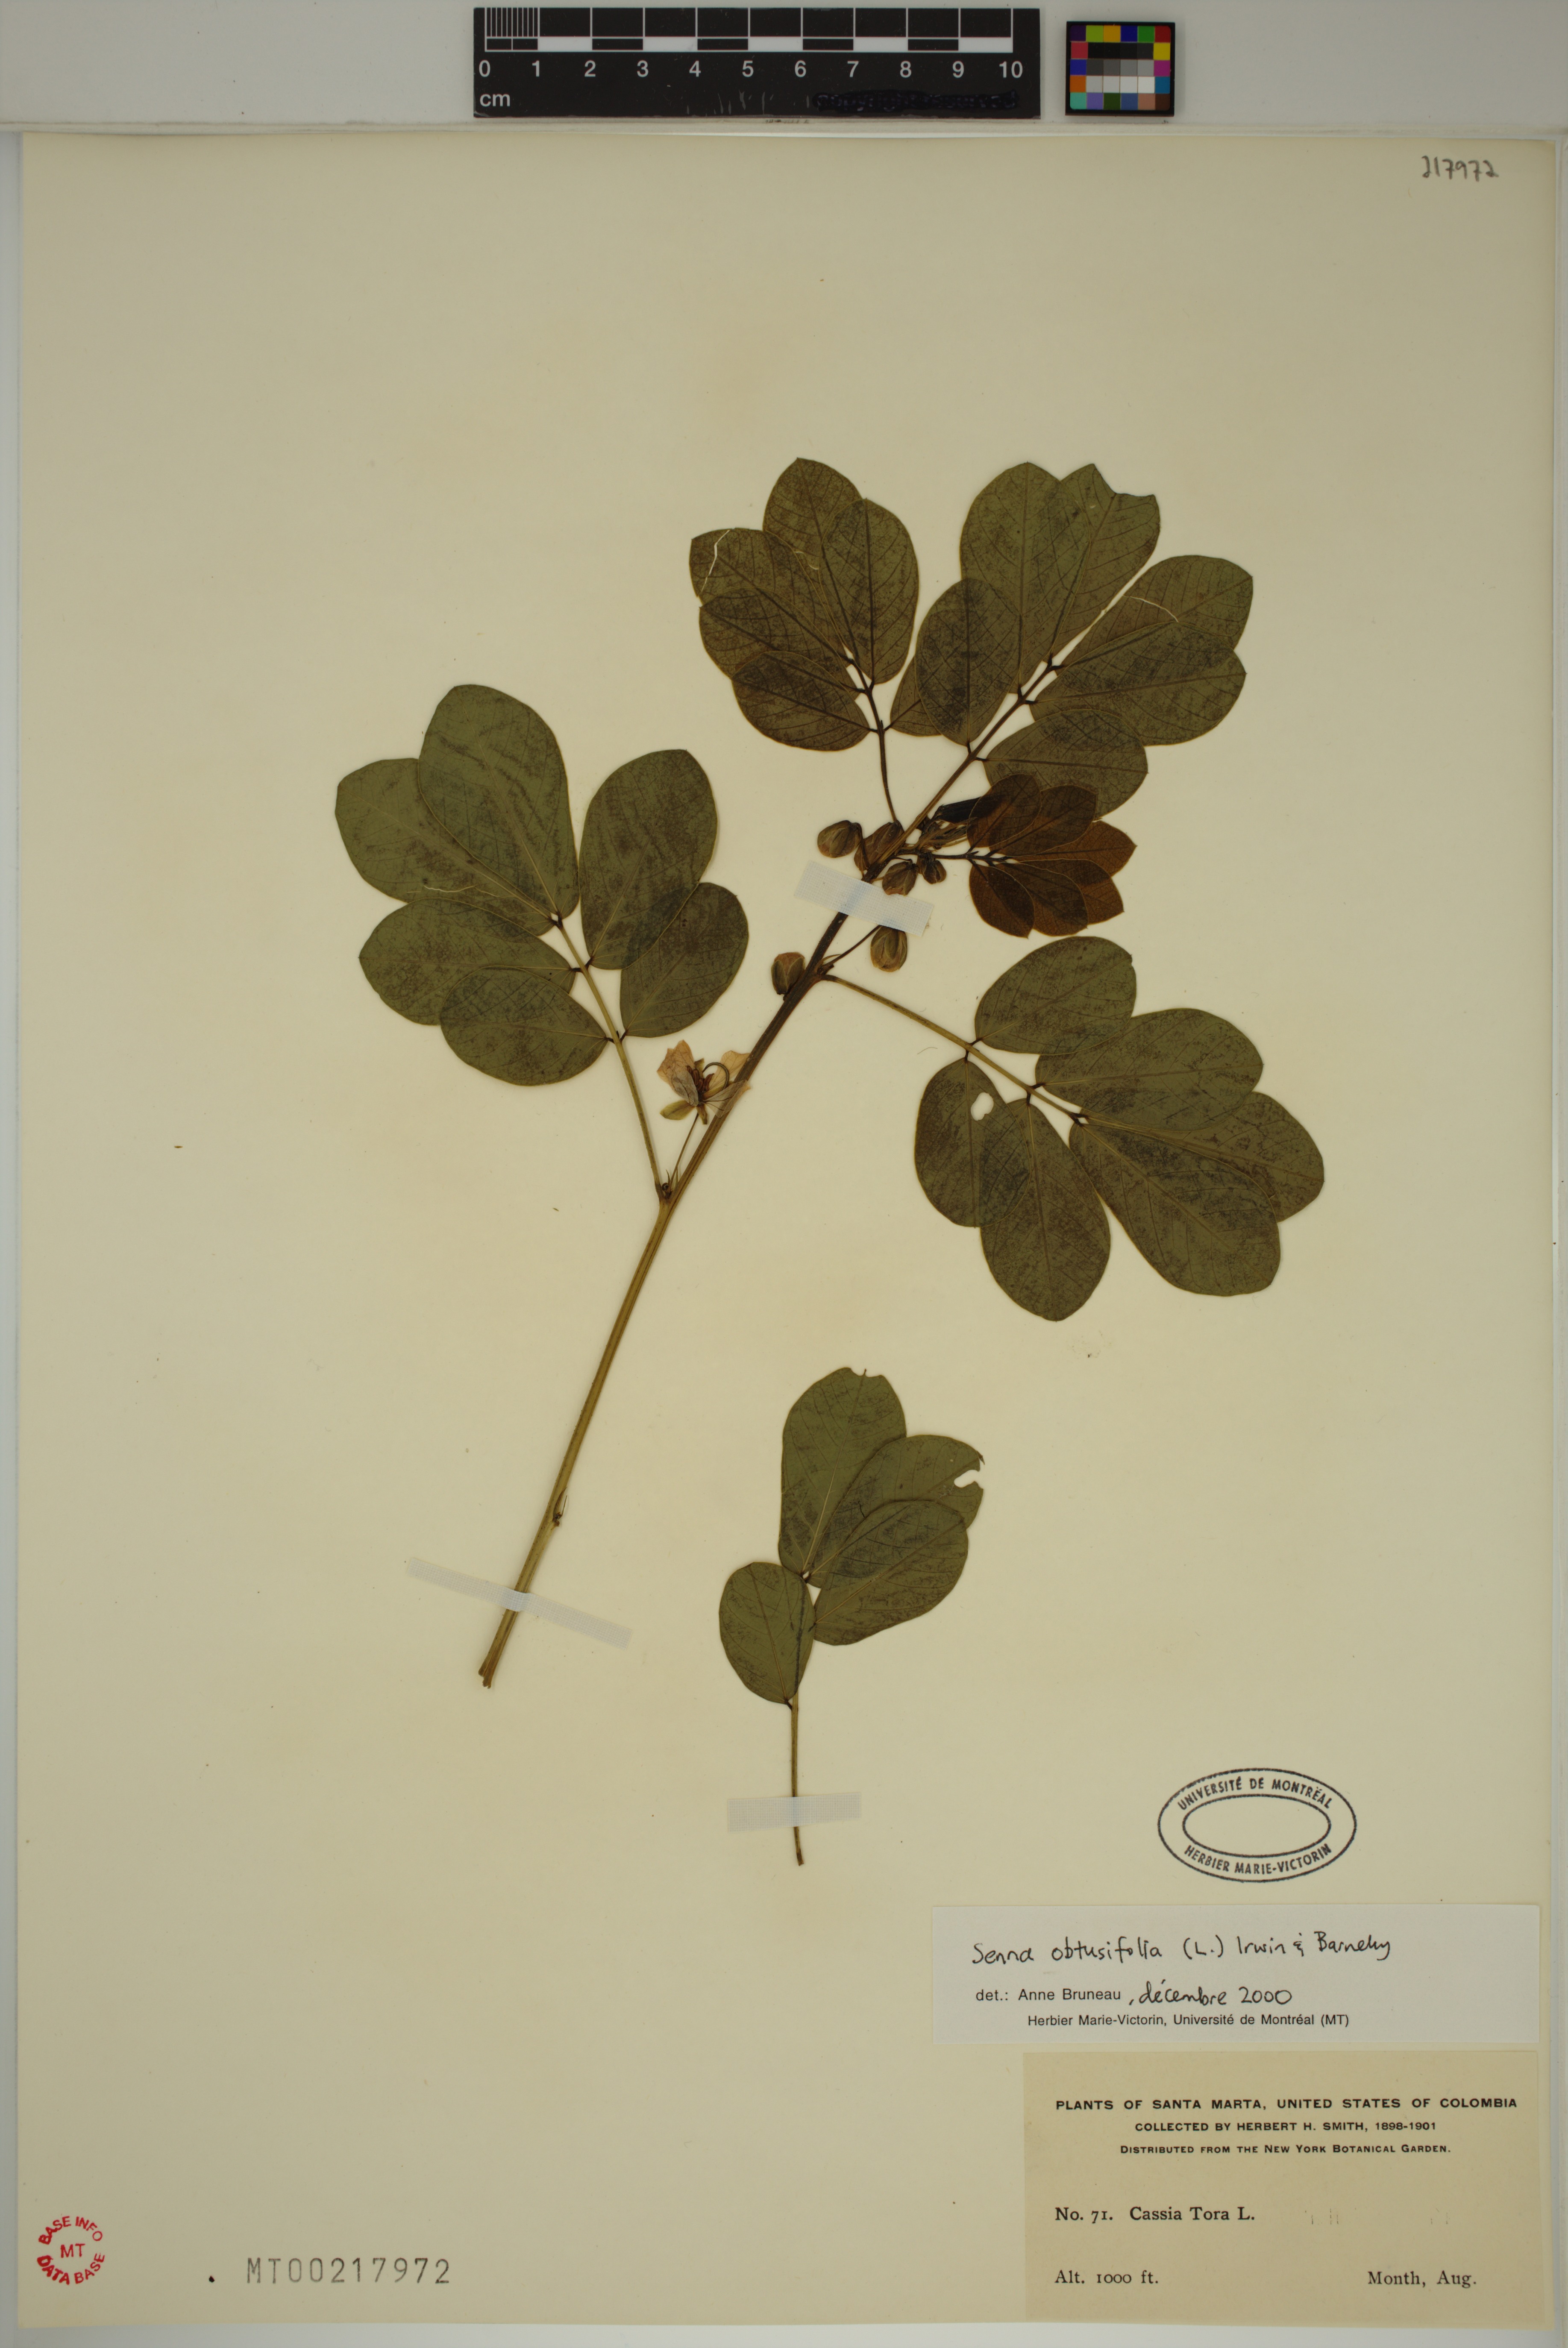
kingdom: Plantae
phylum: Tracheophyta
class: Magnoliopsida
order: Fabales
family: Fabaceae
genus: Senna
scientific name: Senna obtusifolia
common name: Java-bean
